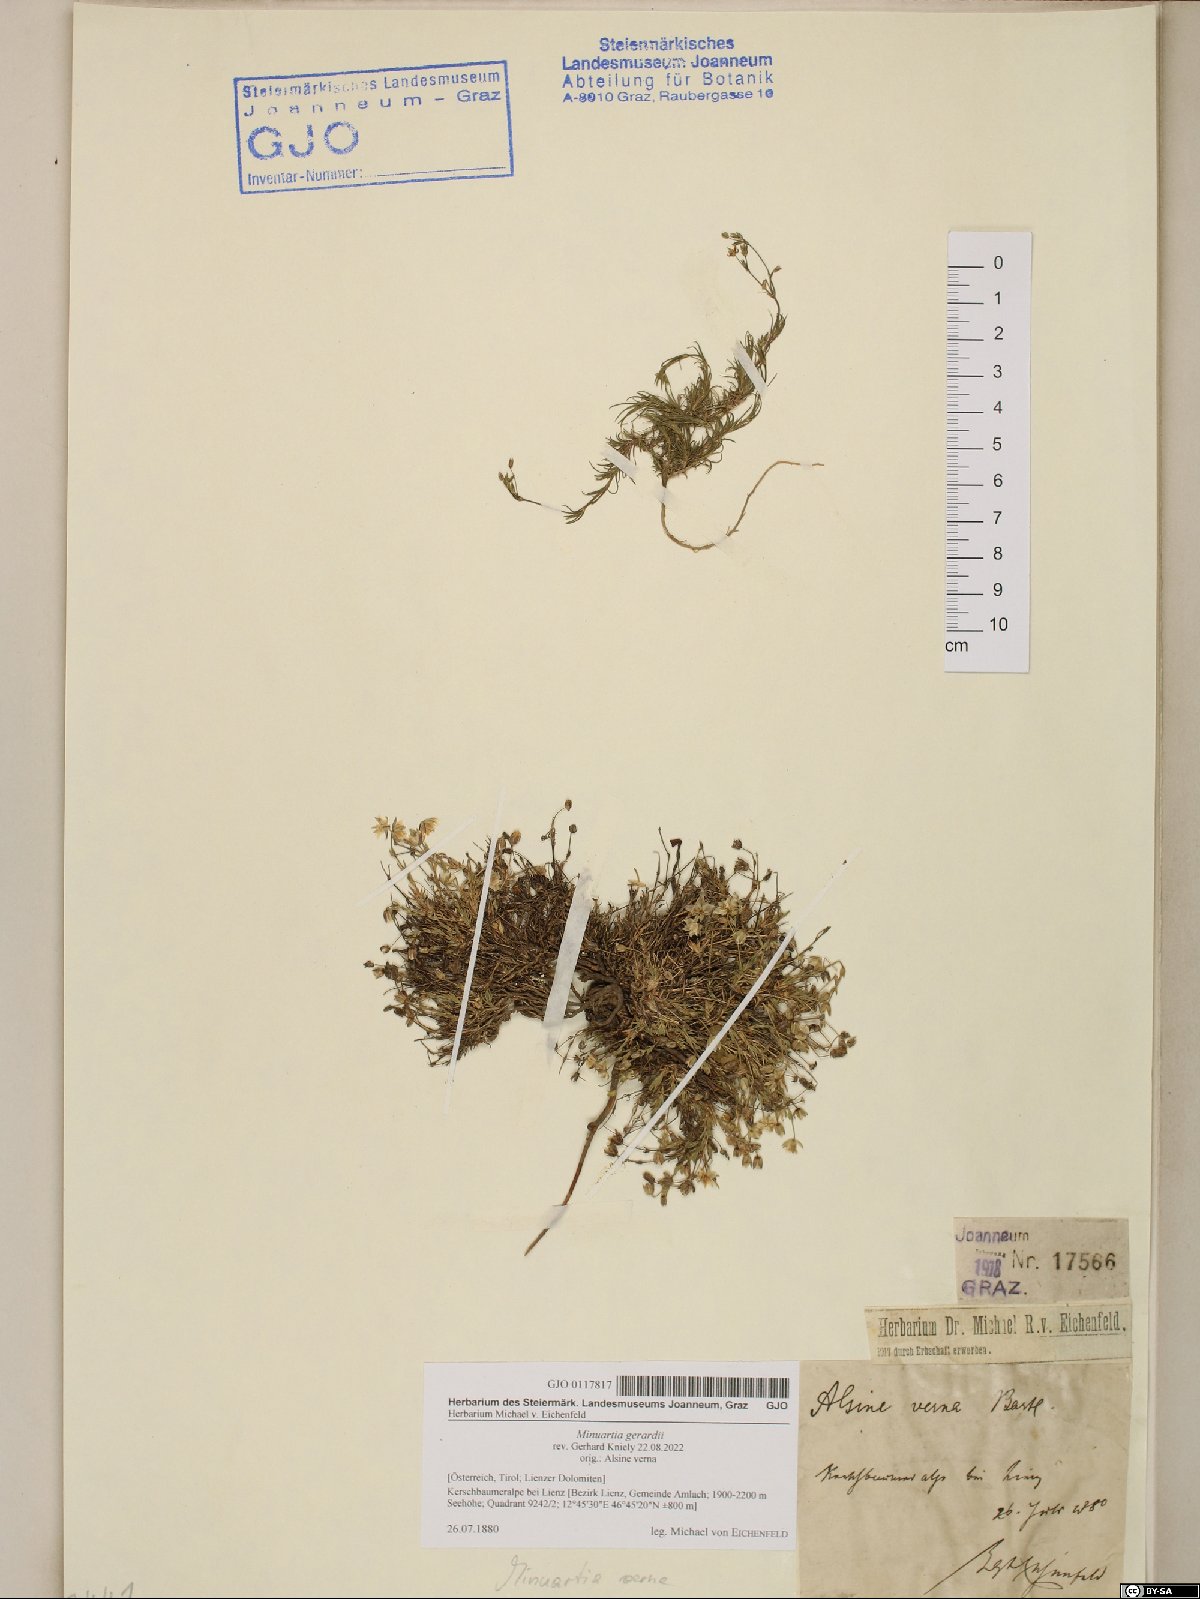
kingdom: Plantae
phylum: Tracheophyta
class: Magnoliopsida
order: Caryophyllales
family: Caryophyllaceae
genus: Sabulina
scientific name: Sabulina verna
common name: Spring sandwort
